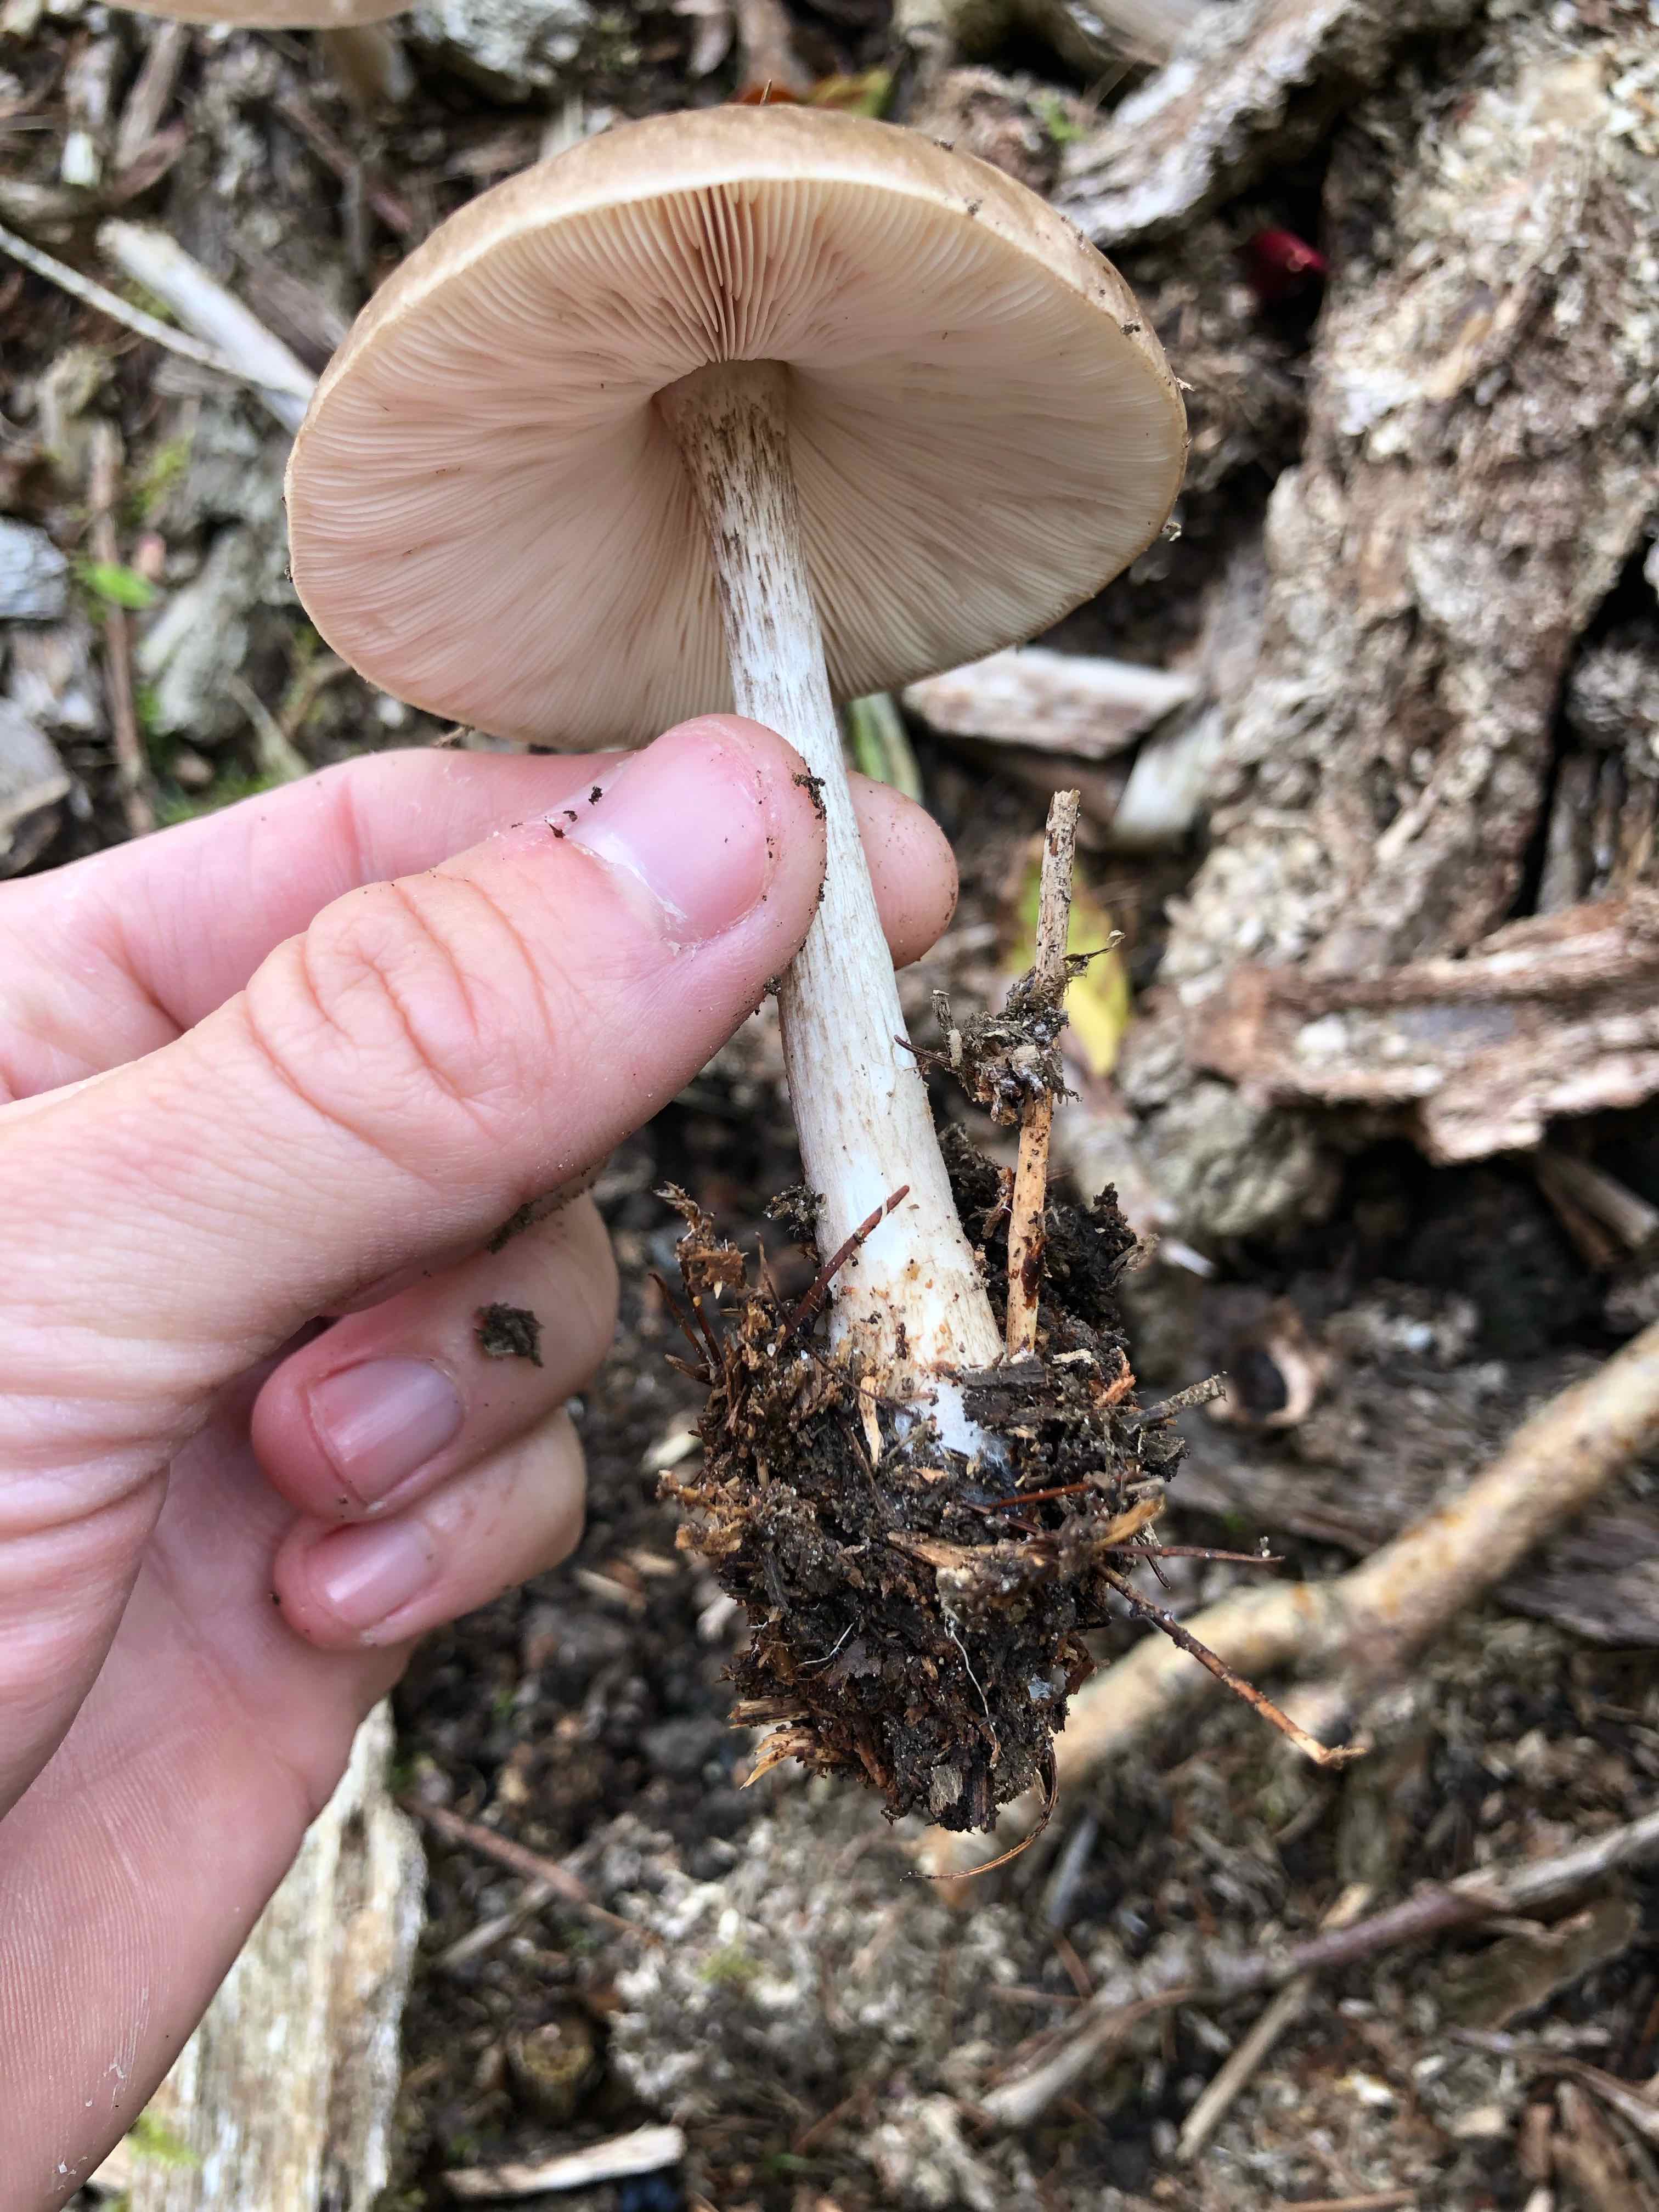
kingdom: Fungi
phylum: Basidiomycota
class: Agaricomycetes
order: Agaricales
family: Pluteaceae
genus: Pluteus
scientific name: Pluteus cervinus
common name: sodfarvet skærmhat
